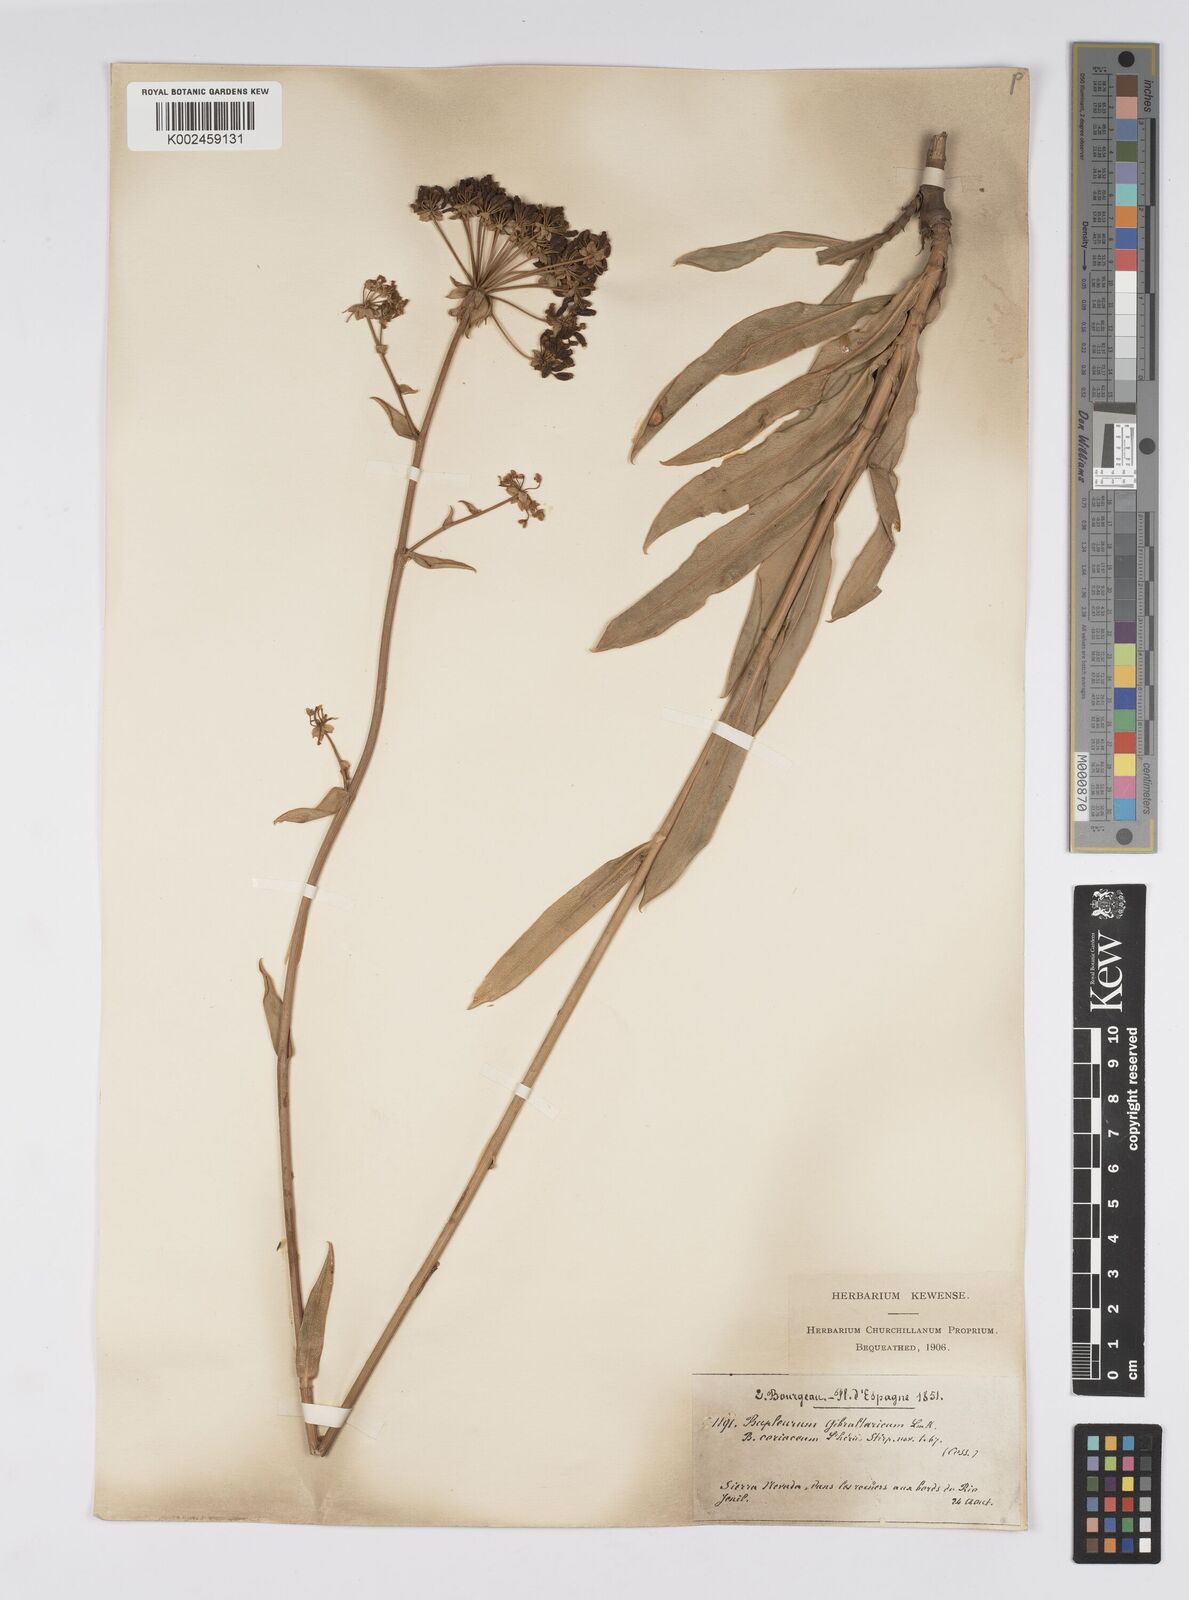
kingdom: Plantae
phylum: Tracheophyta
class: Magnoliopsida
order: Apiales
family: Apiaceae
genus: Bupleurum
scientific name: Bupleurum gibraltaricum
